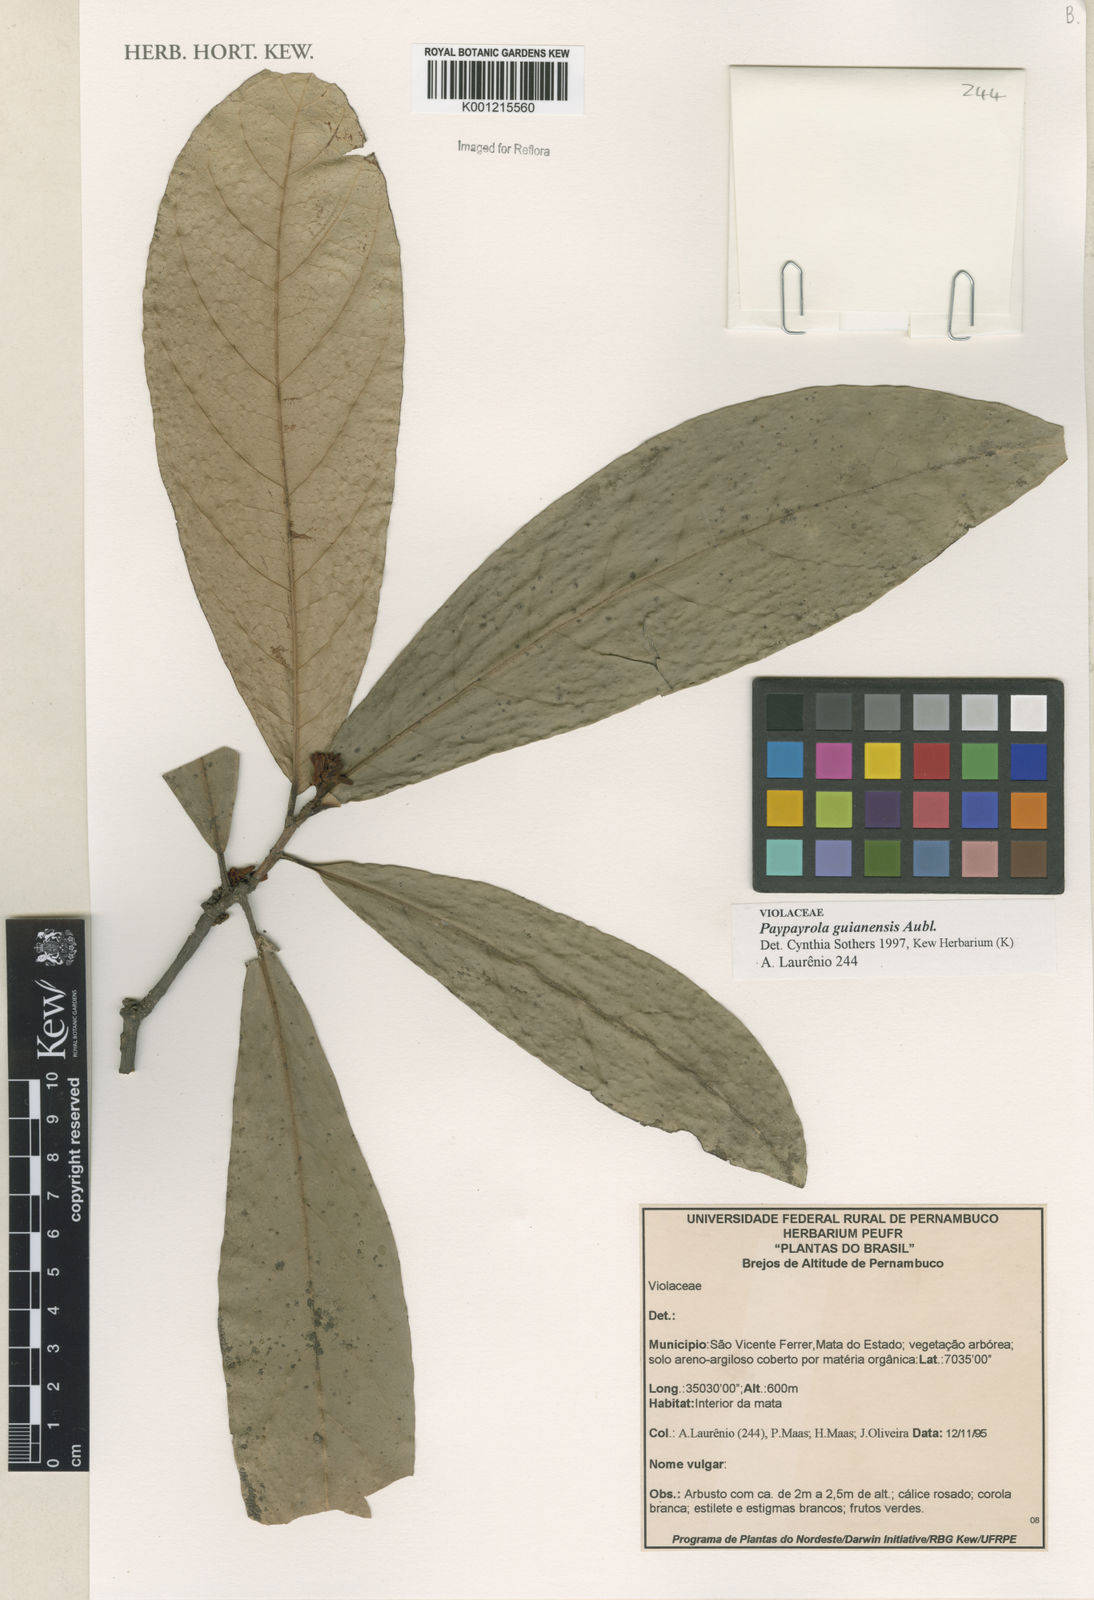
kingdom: Plantae
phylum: Tracheophyta
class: Magnoliopsida
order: Malpighiales
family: Violaceae
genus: Paypayrola
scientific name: Paypayrola guianensis
